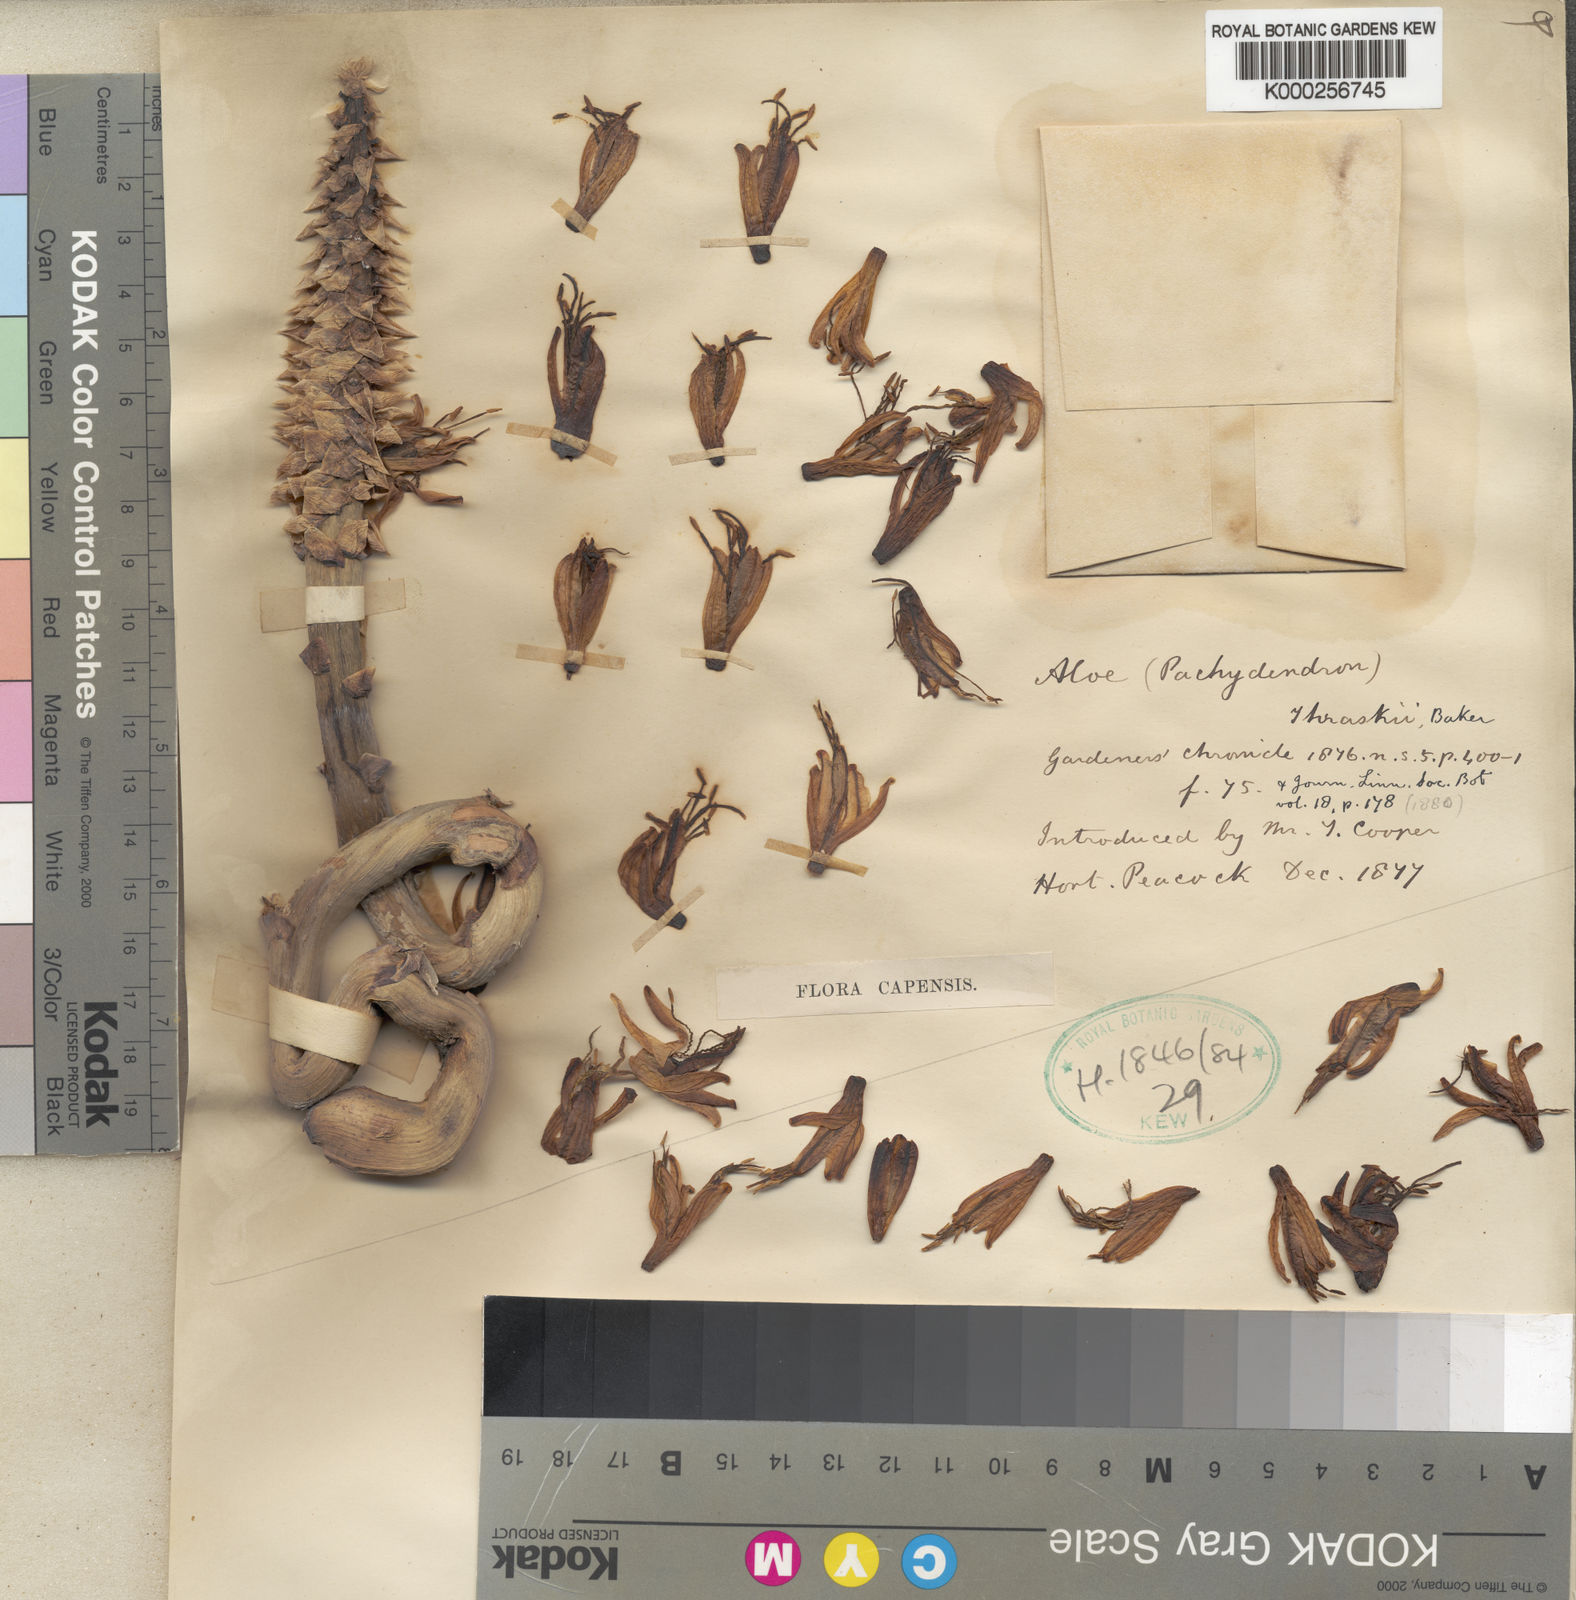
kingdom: Plantae
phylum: Tracheophyta
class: Liliopsida
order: Asparagales
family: Asphodelaceae
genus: Aloe
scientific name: Aloe thraskii
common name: Coast aloe
